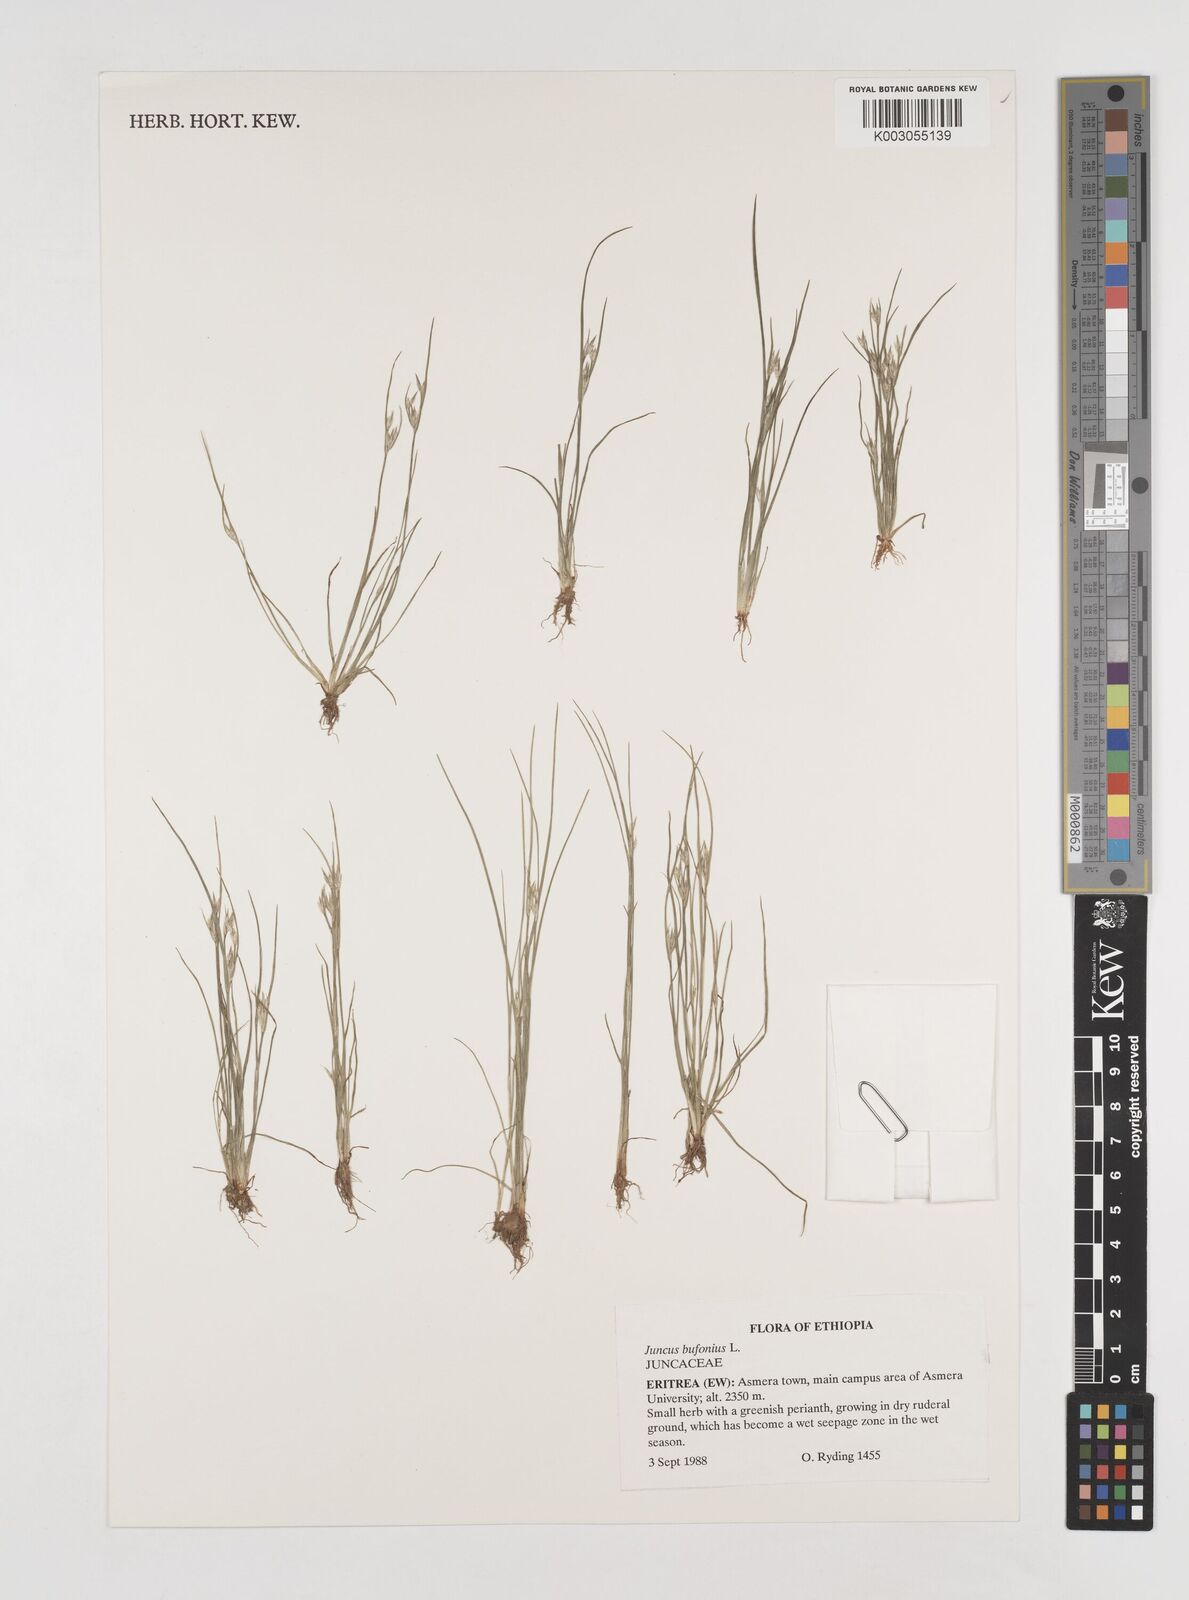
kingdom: Plantae
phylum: Tracheophyta
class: Liliopsida
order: Poales
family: Juncaceae
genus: Juncus
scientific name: Juncus bufonius
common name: Toad rush
